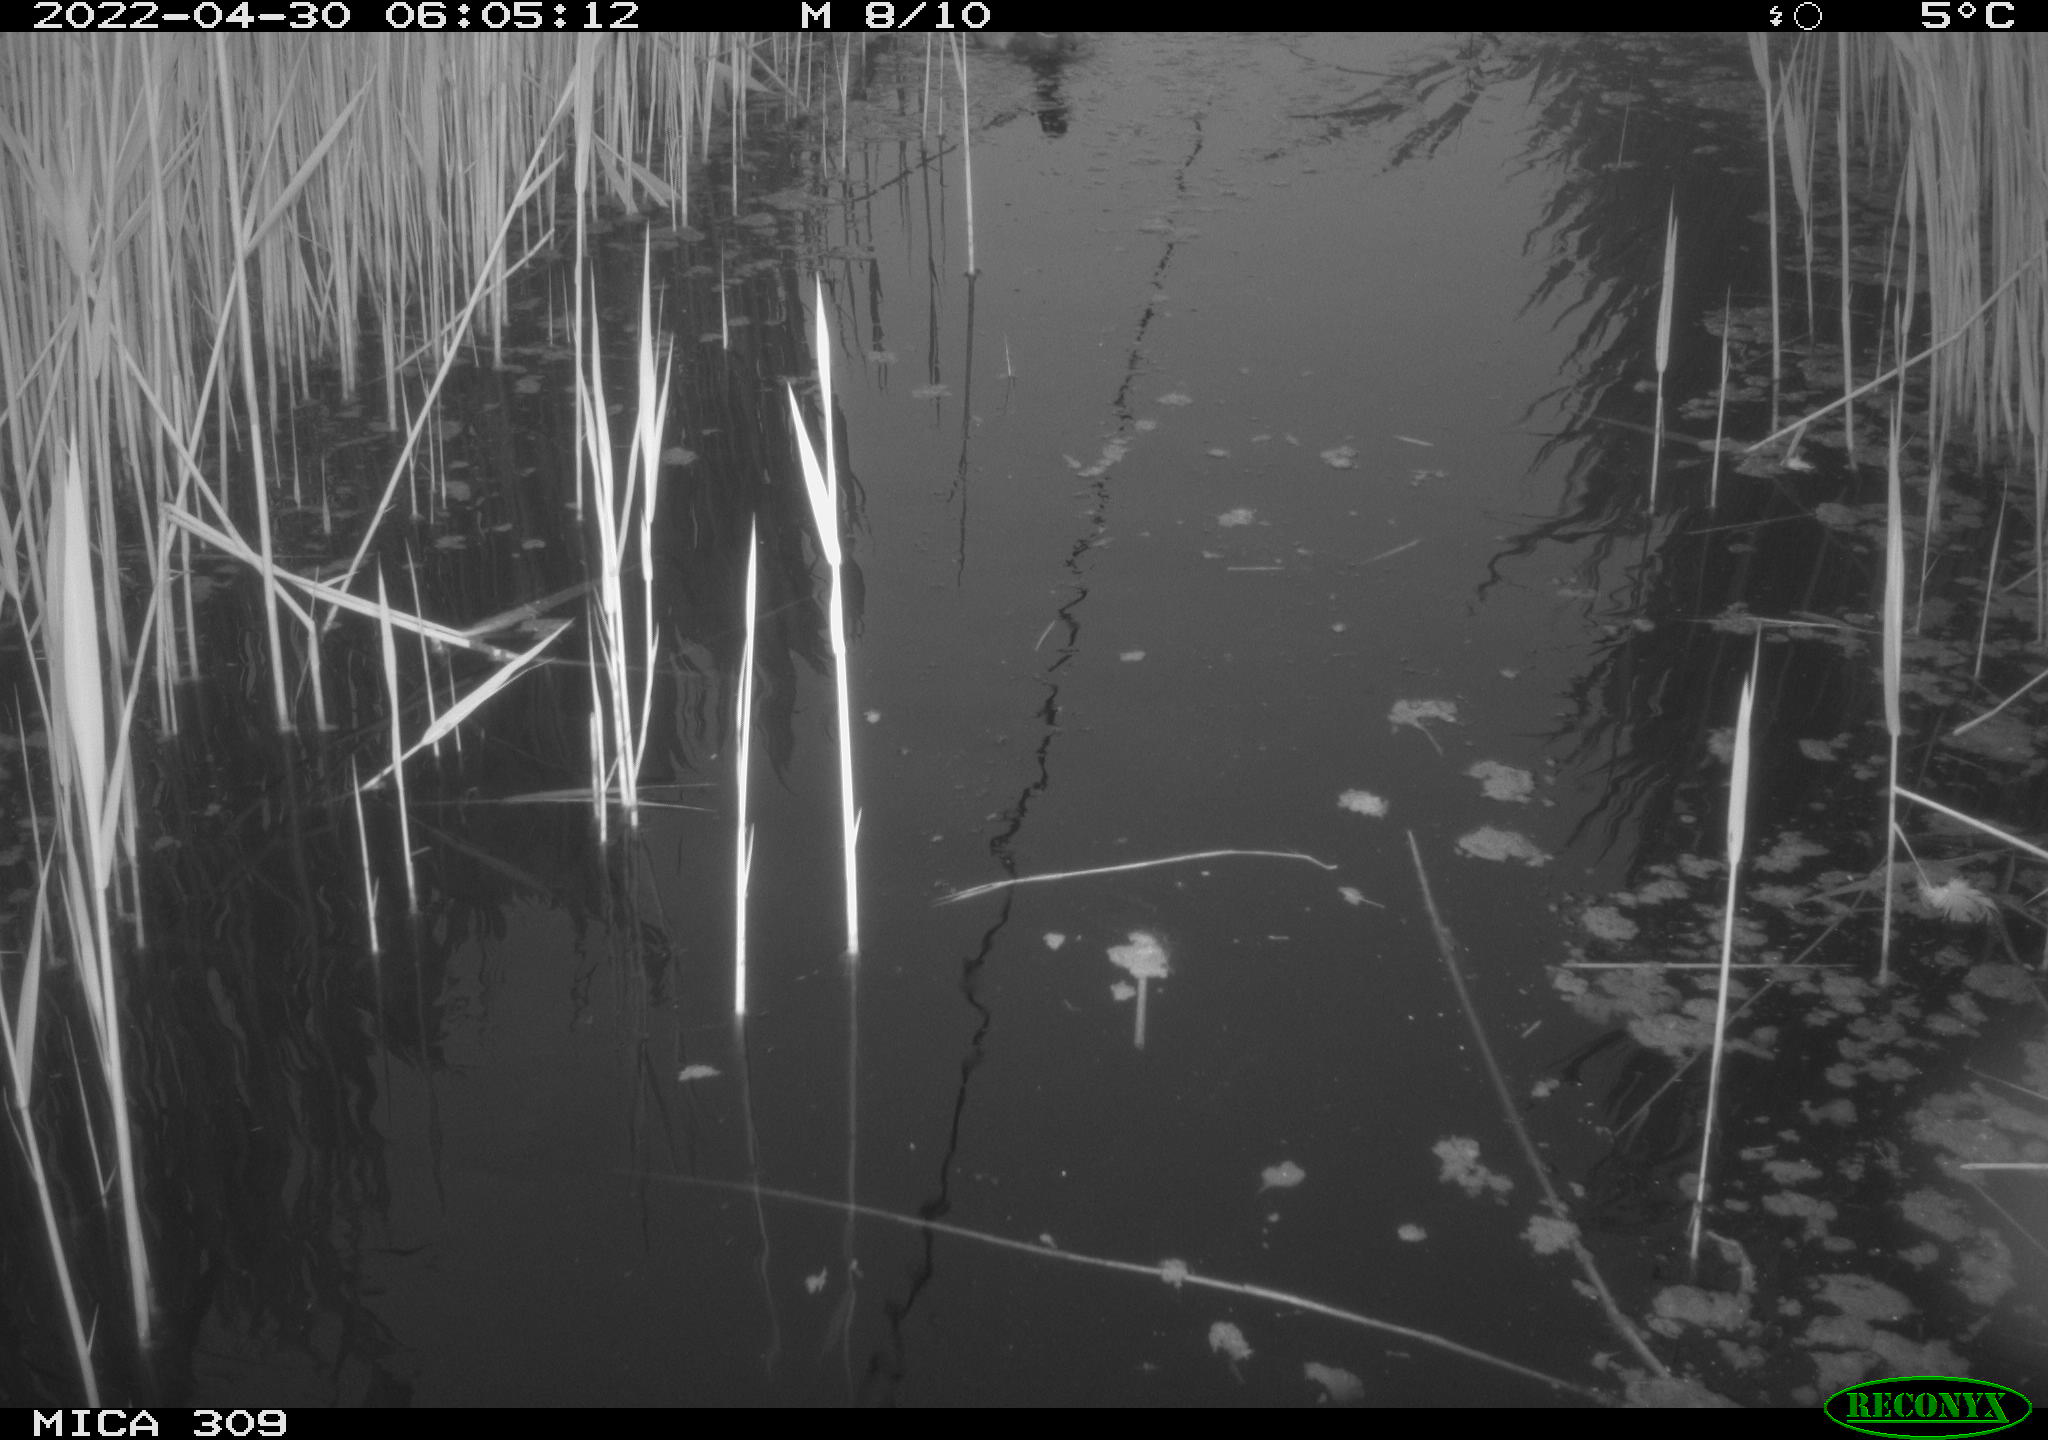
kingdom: Animalia
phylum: Chordata
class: Aves
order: Gruiformes
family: Rallidae
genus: Gallinula
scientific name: Gallinula chloropus
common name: Common moorhen
